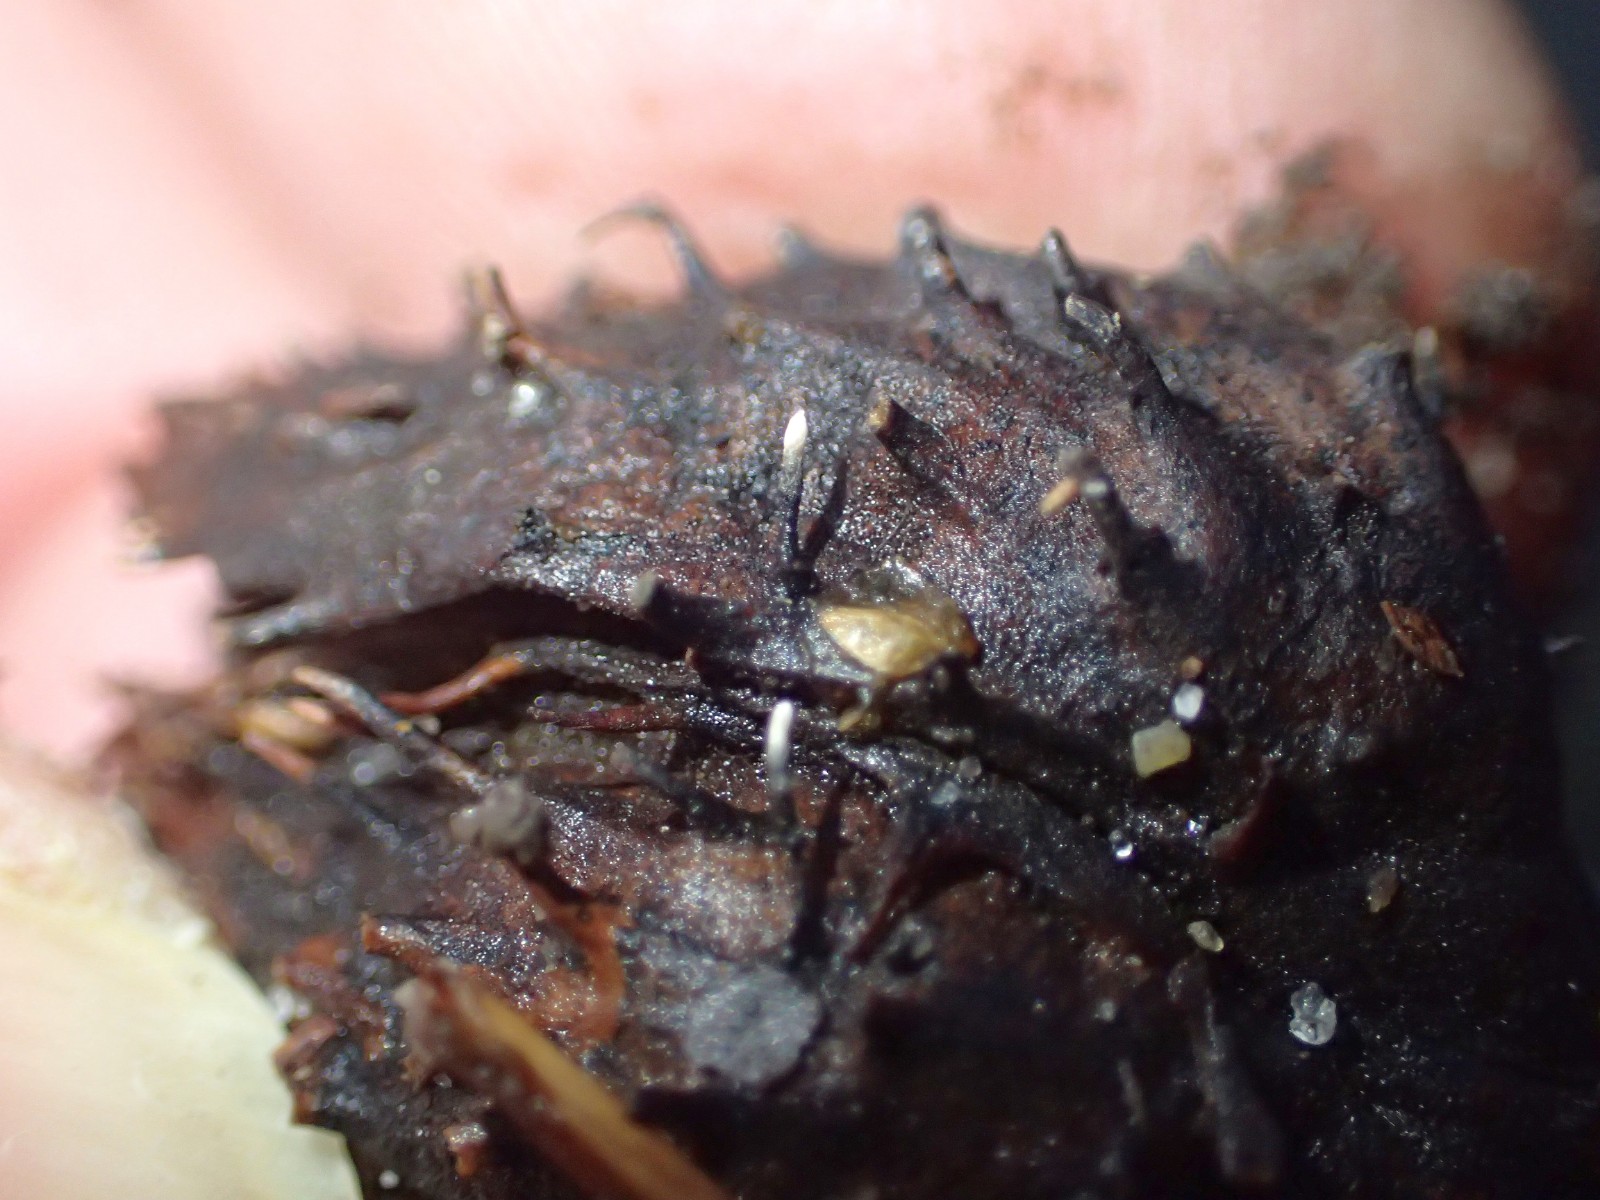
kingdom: Fungi
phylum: Ascomycota
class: Sordariomycetes
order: Xylariales
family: Xylariaceae
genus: Xylaria
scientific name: Xylaria carpophila
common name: bogskål-stødsvamp
